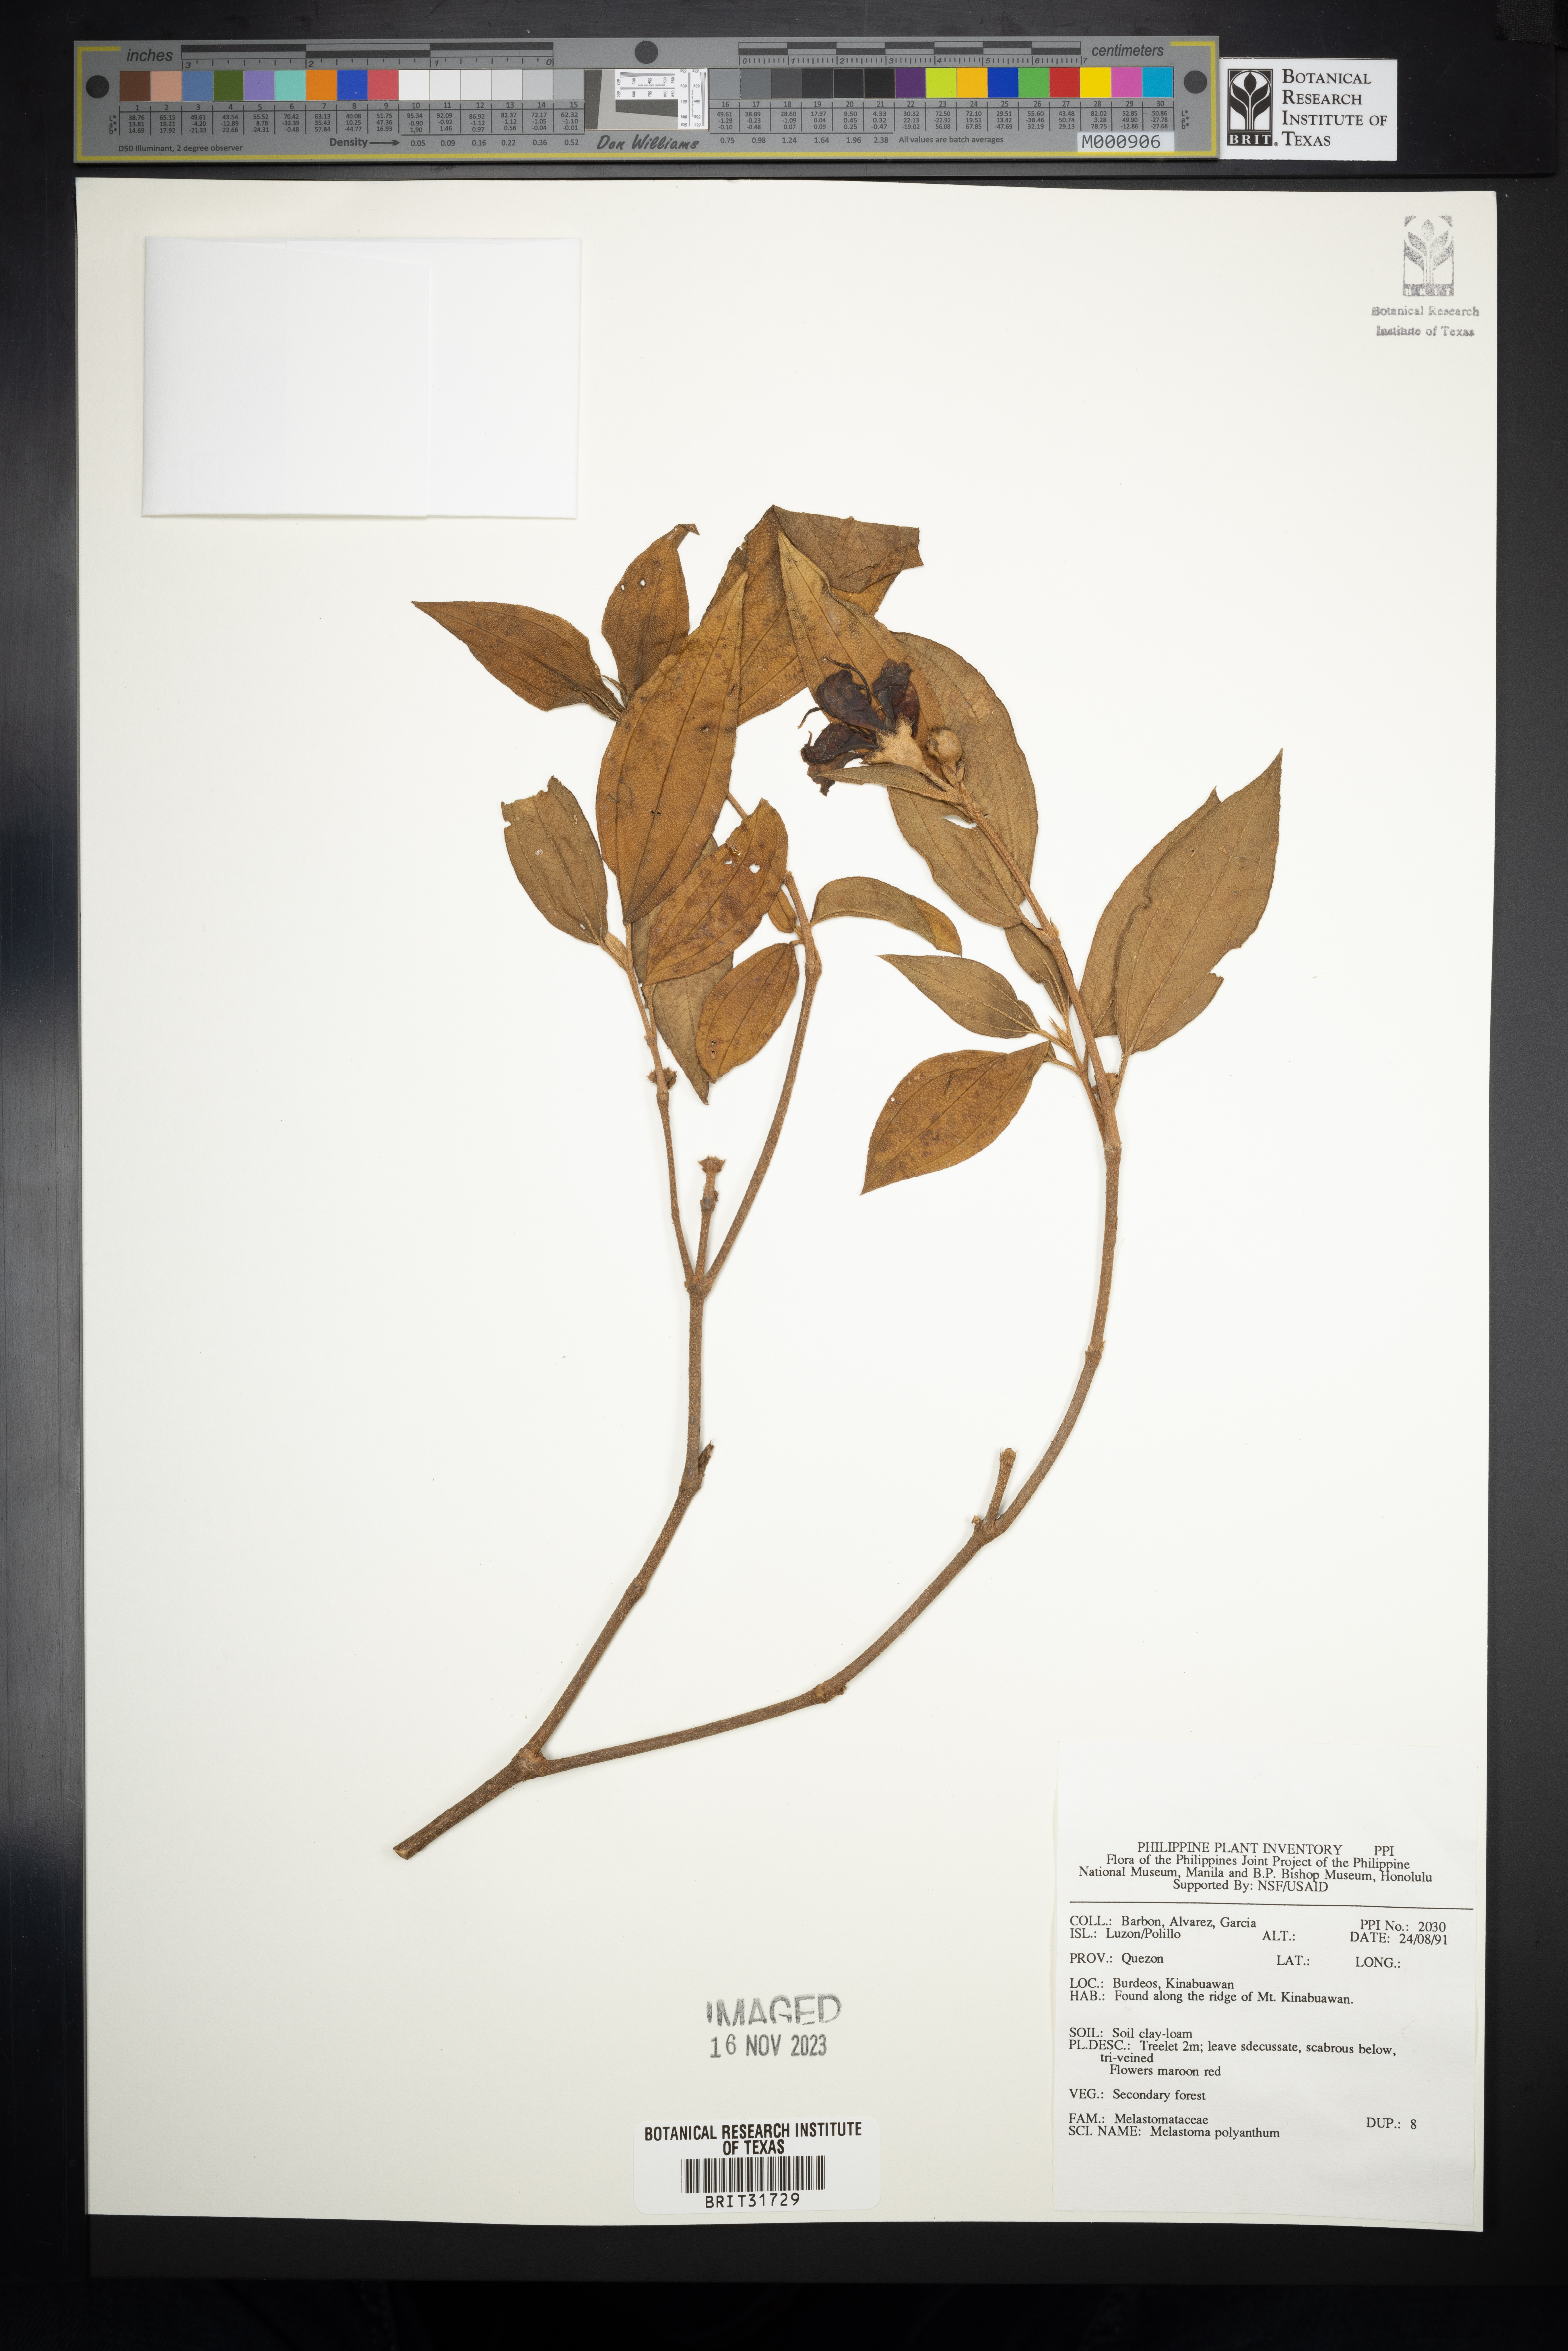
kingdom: Plantae
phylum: Tracheophyta
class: Magnoliopsida
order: Myrtales
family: Melastomataceae
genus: Melastoma
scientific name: Melastoma malabathricum
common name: Indian-rhododendron
